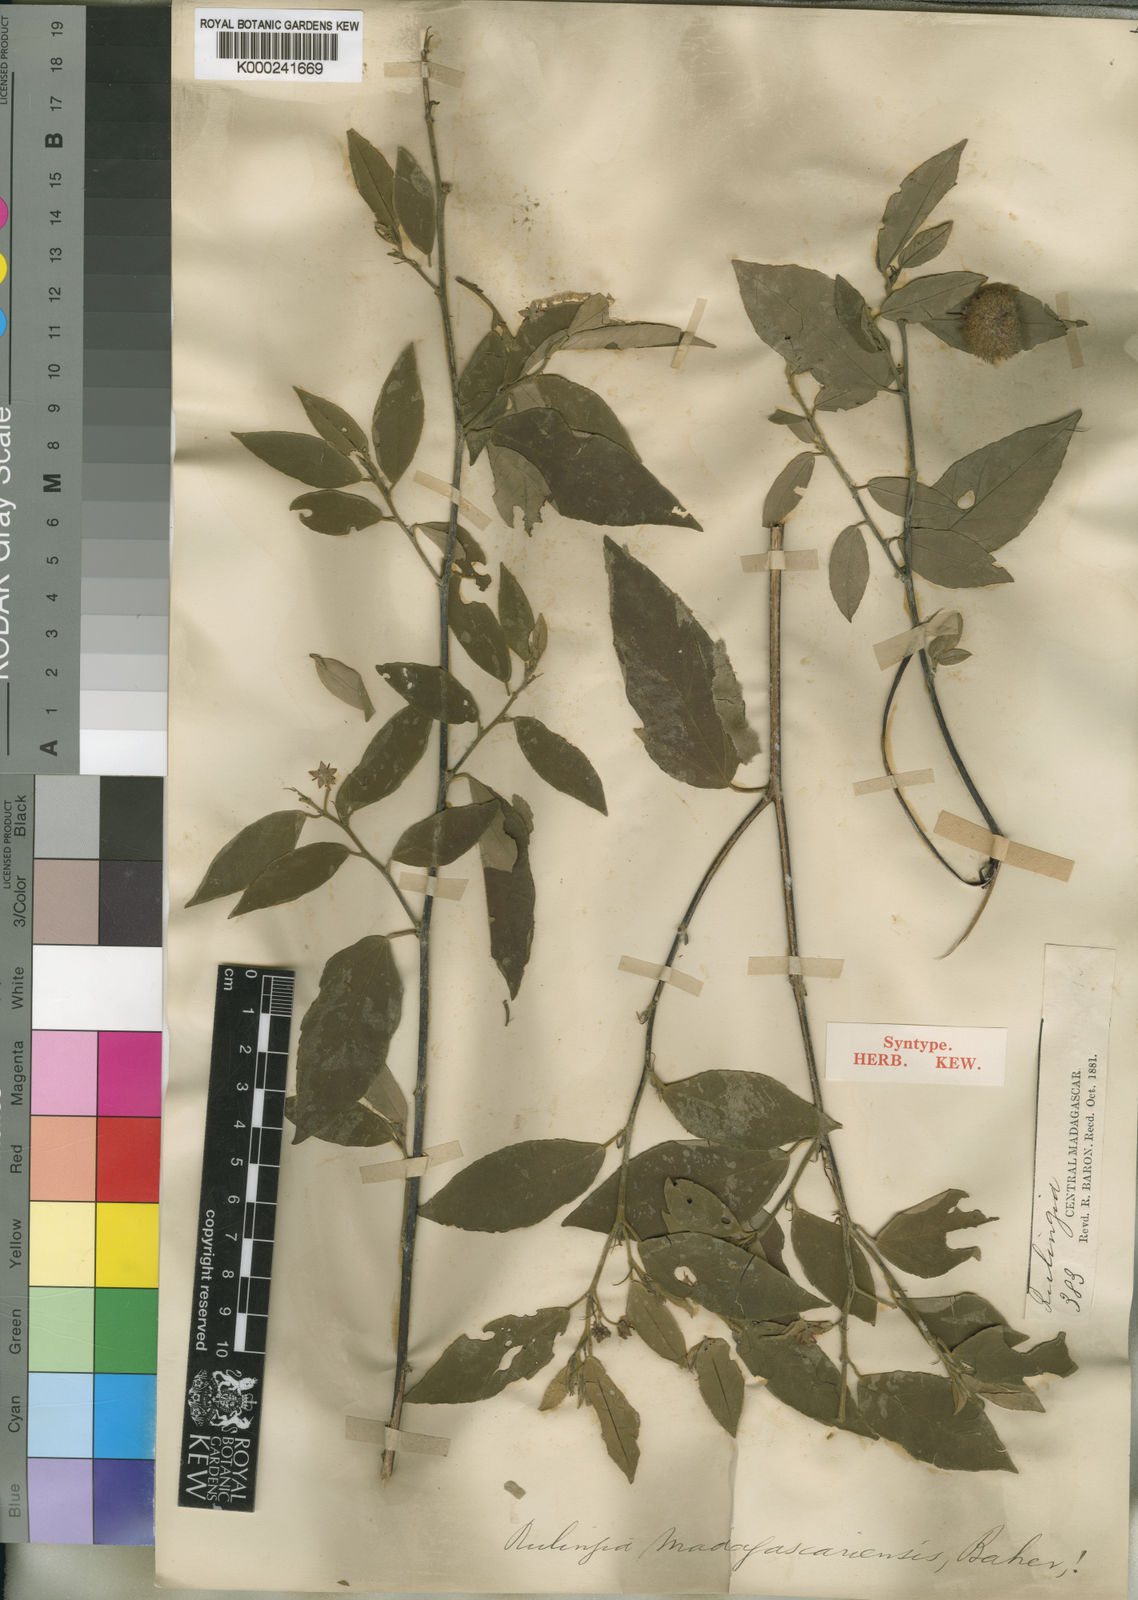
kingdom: Plantae
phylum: Tracheophyta
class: Magnoliopsida
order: Malvales
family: Malvaceae
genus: Commersonia
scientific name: Commersonia madagascariensis
